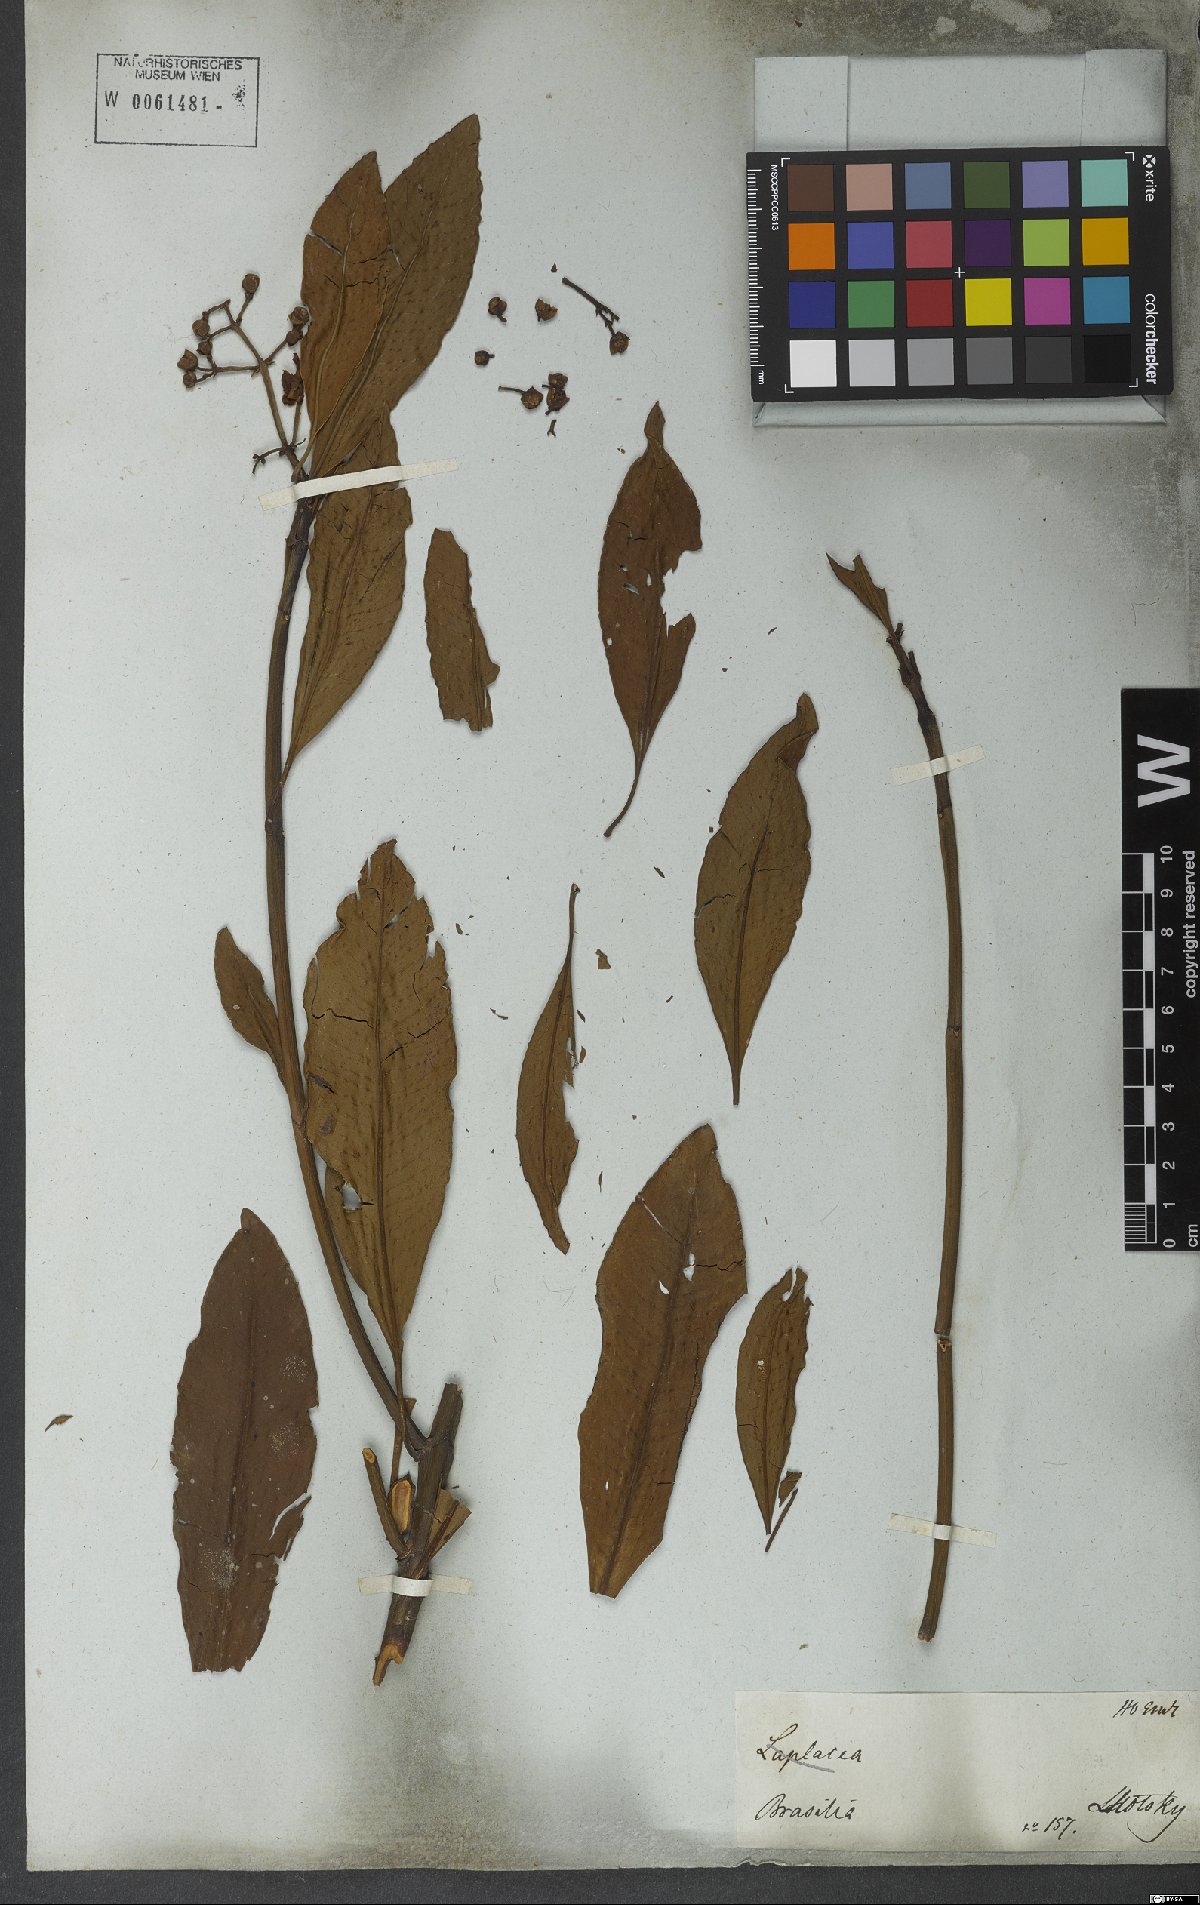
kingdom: Plantae
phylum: Tracheophyta
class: Magnoliopsida
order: Malpighiales
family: Clusiaceae
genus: Chrysochlamys
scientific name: Chrysochlamys paniculata
